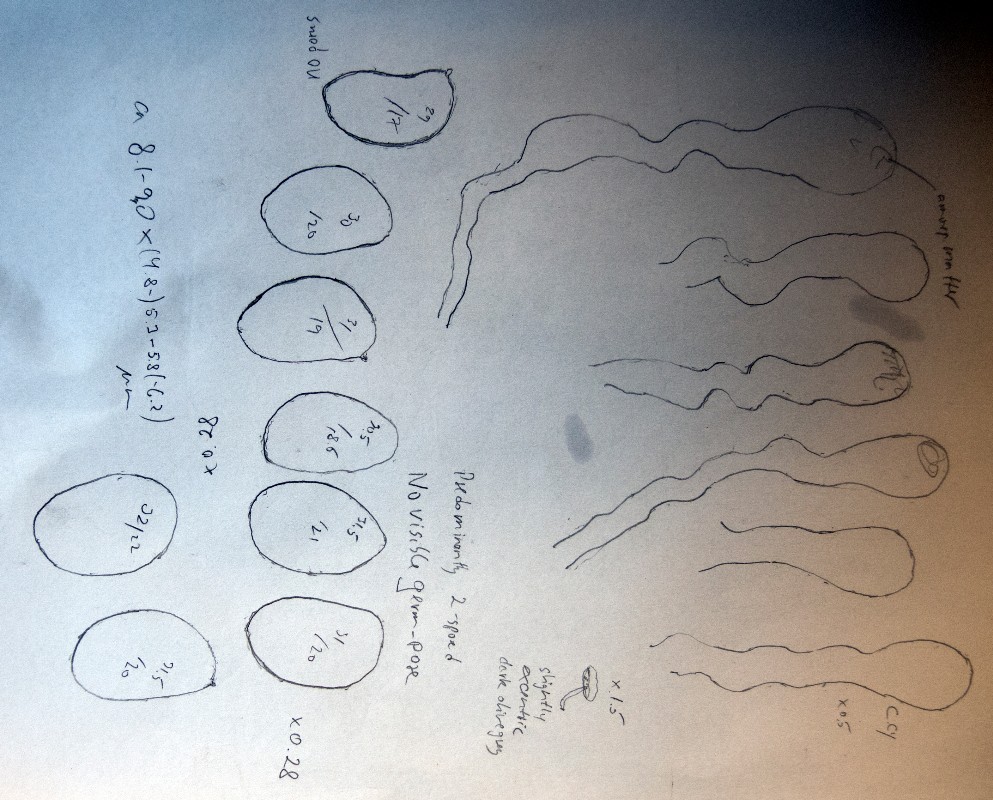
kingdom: Fungi
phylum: Basidiomycota
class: Agaricomycetes
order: Agaricales
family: Crepidotaceae
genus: Simocybe
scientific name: Simocybe haustellaris
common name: skæv skyggehat
